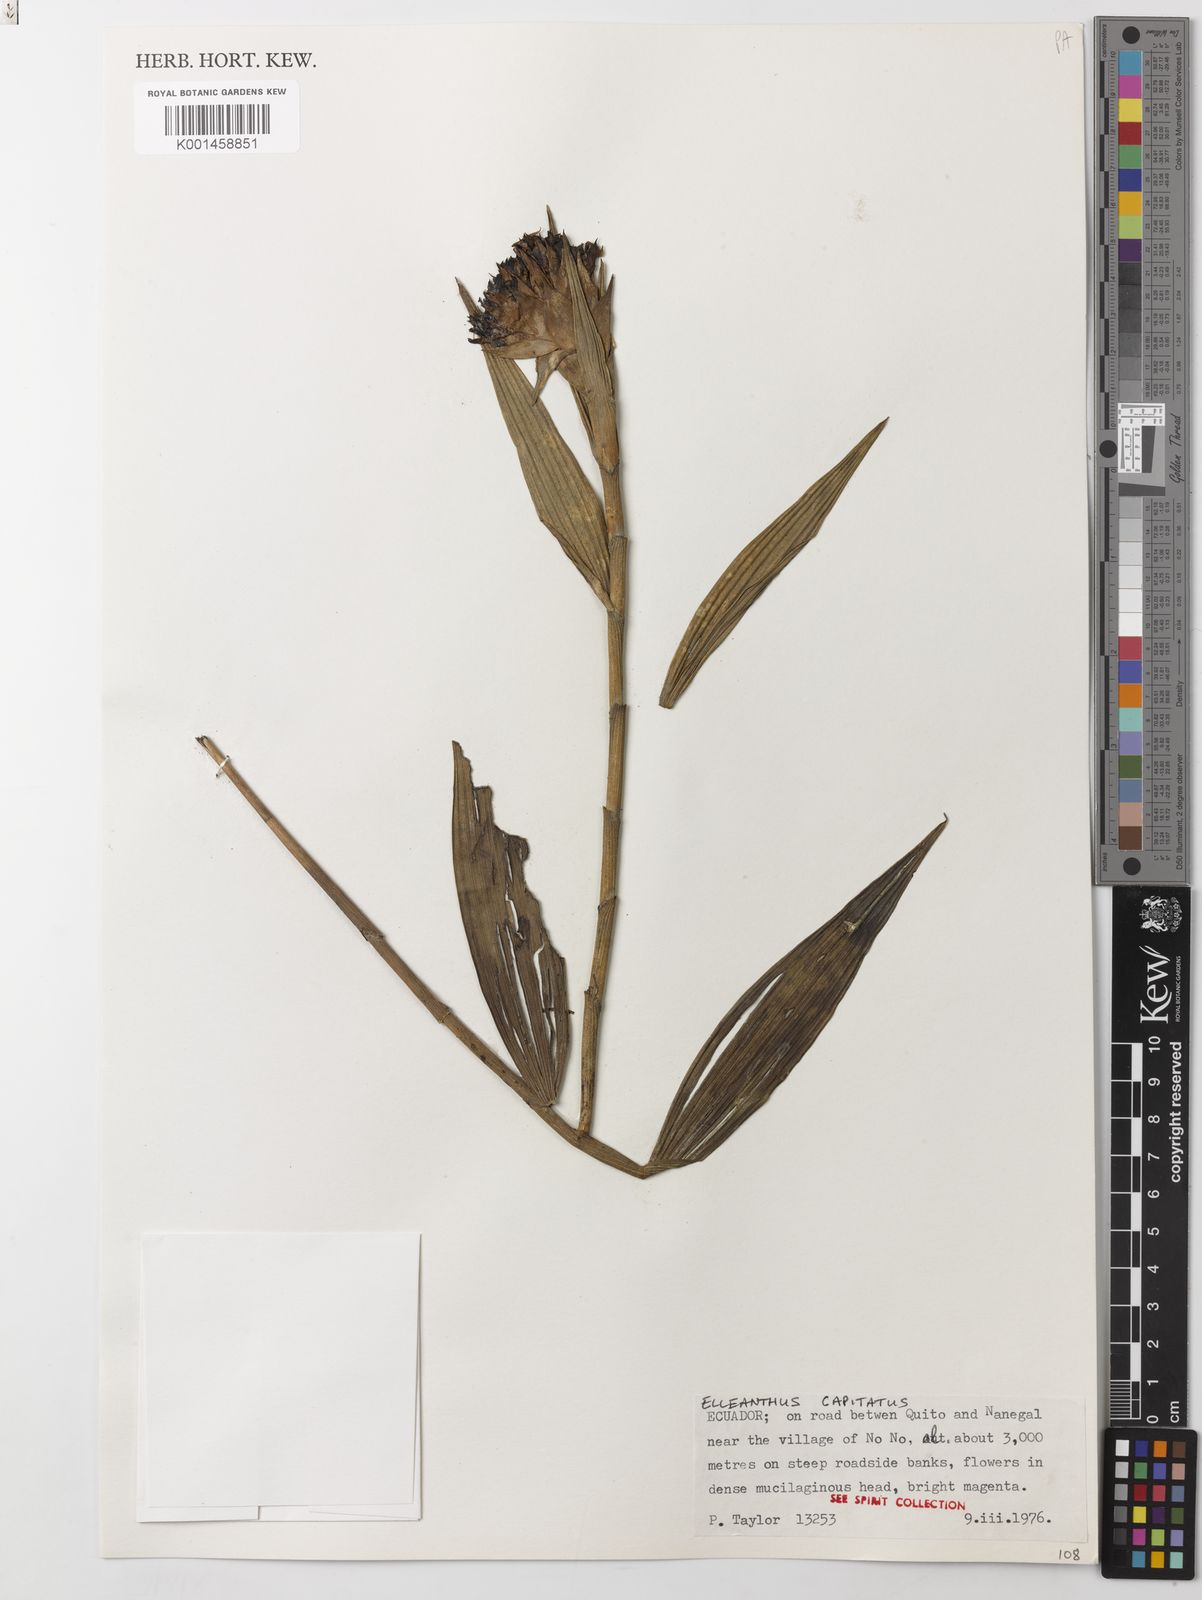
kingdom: Plantae
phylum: Tracheophyta
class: Liliopsida
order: Asparagales
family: Orchidaceae
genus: Elleanthus
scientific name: Elleanthus
